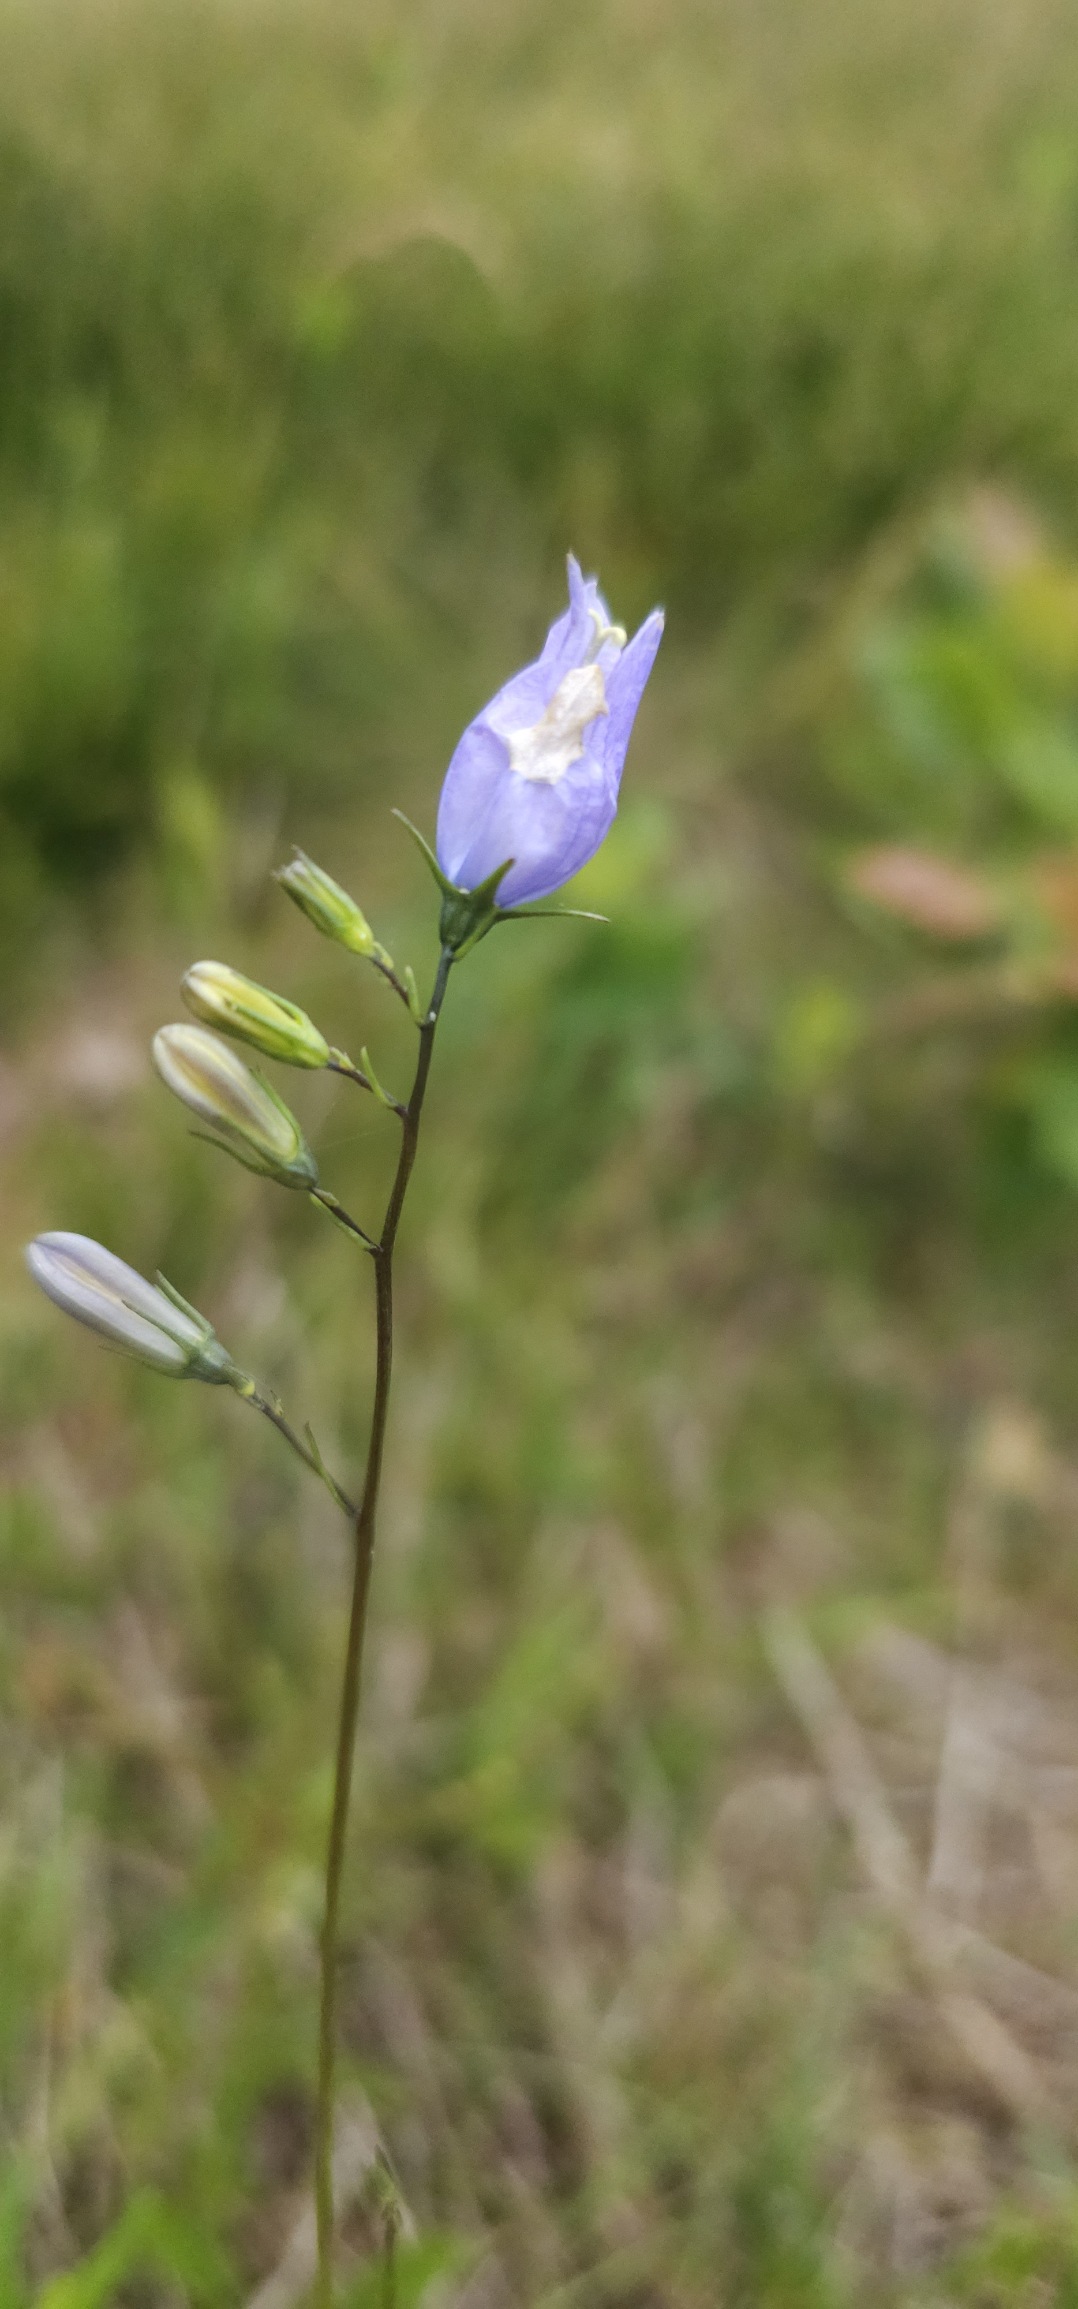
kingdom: Plantae
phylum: Tracheophyta
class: Magnoliopsida
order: Asterales
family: Campanulaceae
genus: Campanula
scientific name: Campanula rotundifolia
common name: Liden klokke
